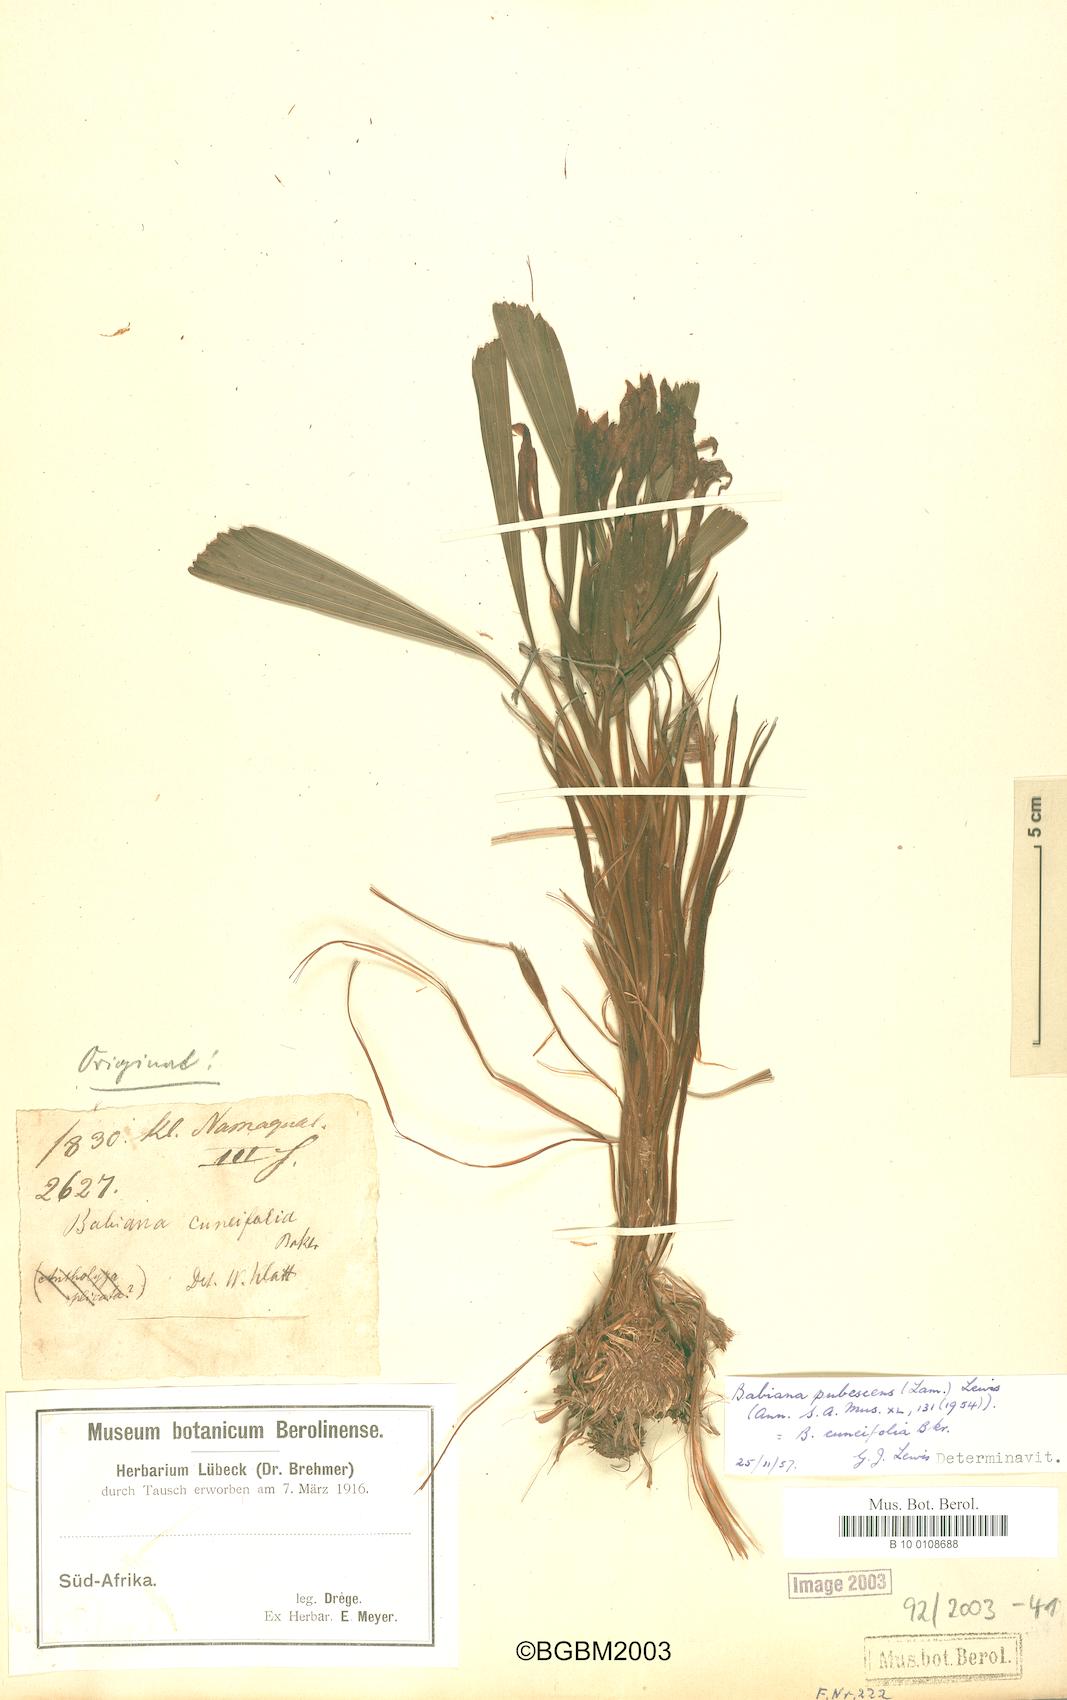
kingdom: Plantae
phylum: Tracheophyta
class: Liliopsida
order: Asparagales
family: Iridaceae
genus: Babiana
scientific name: Babiana pubescens
